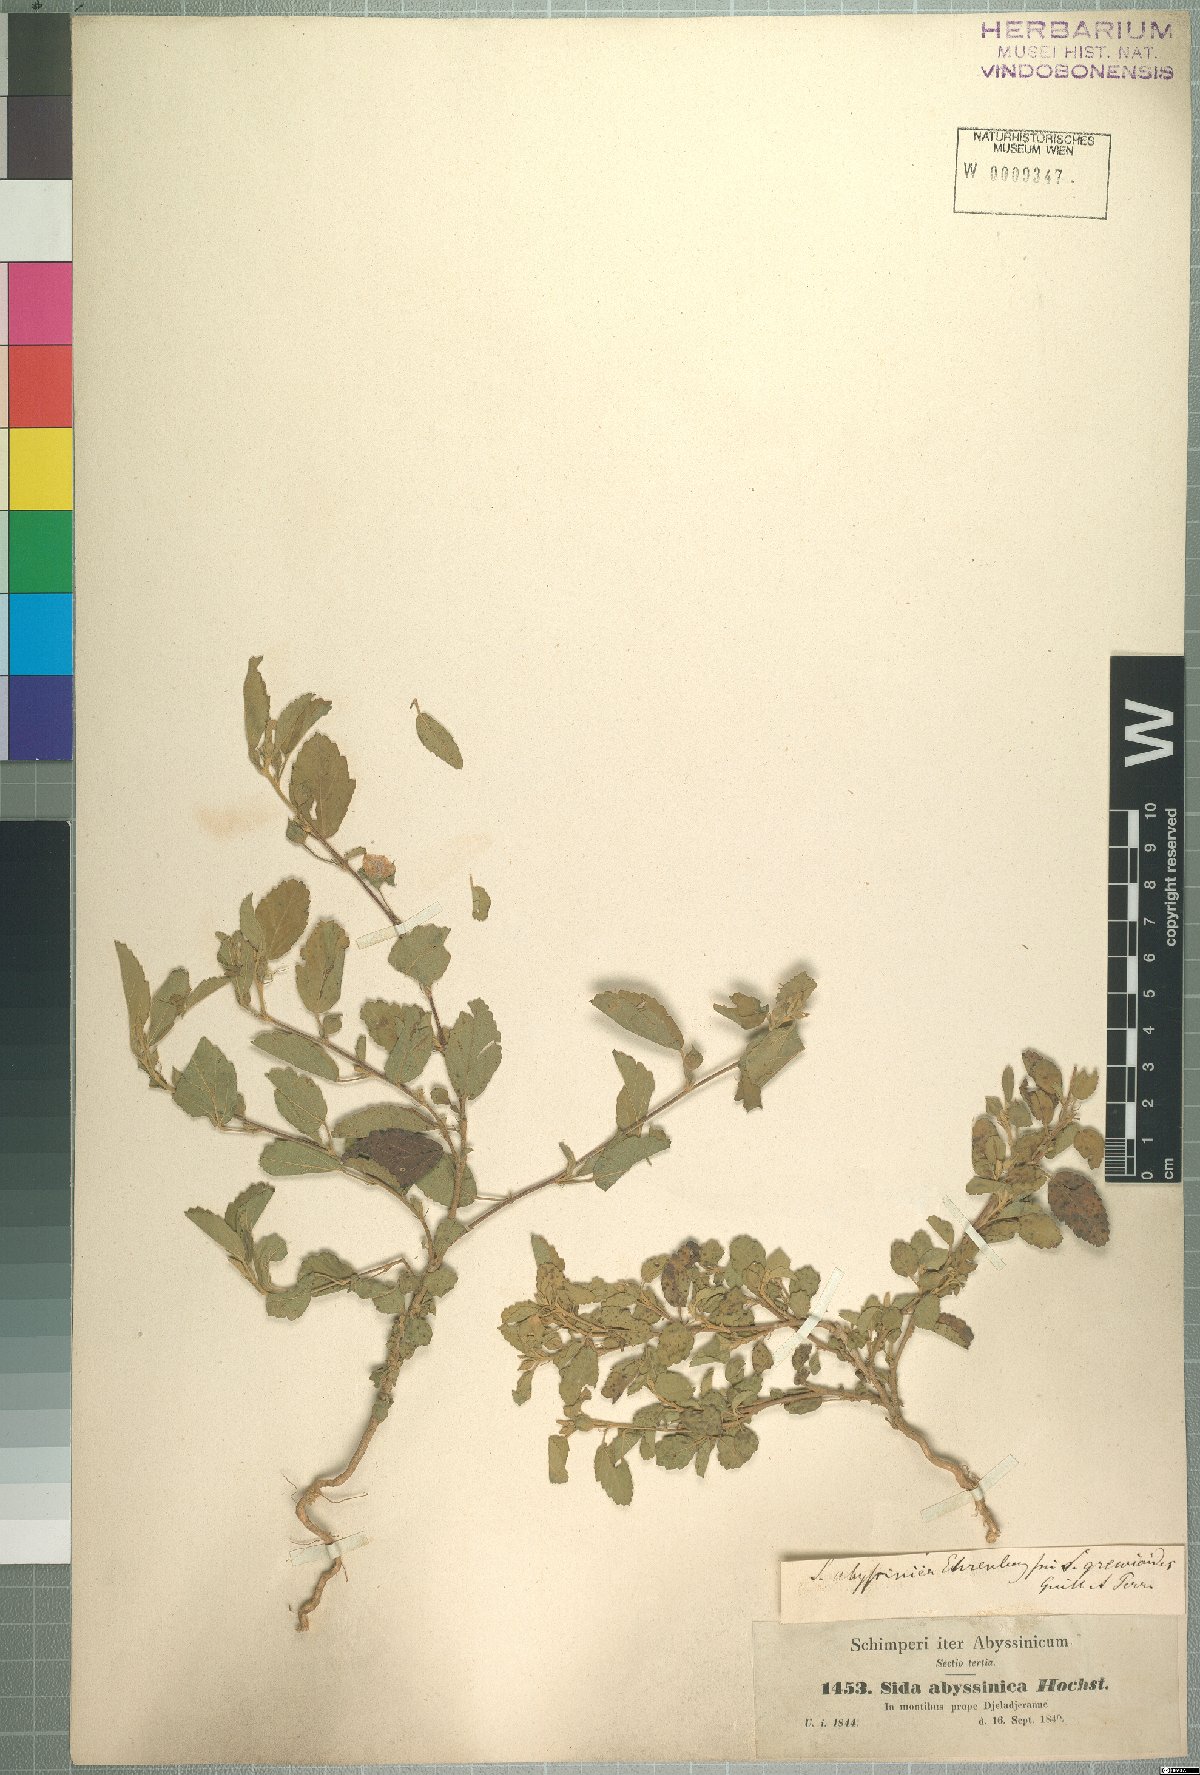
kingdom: Plantae
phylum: Tracheophyta
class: Magnoliopsida
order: Malvales
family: Malvaceae
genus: Sida
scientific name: Sida ovata
